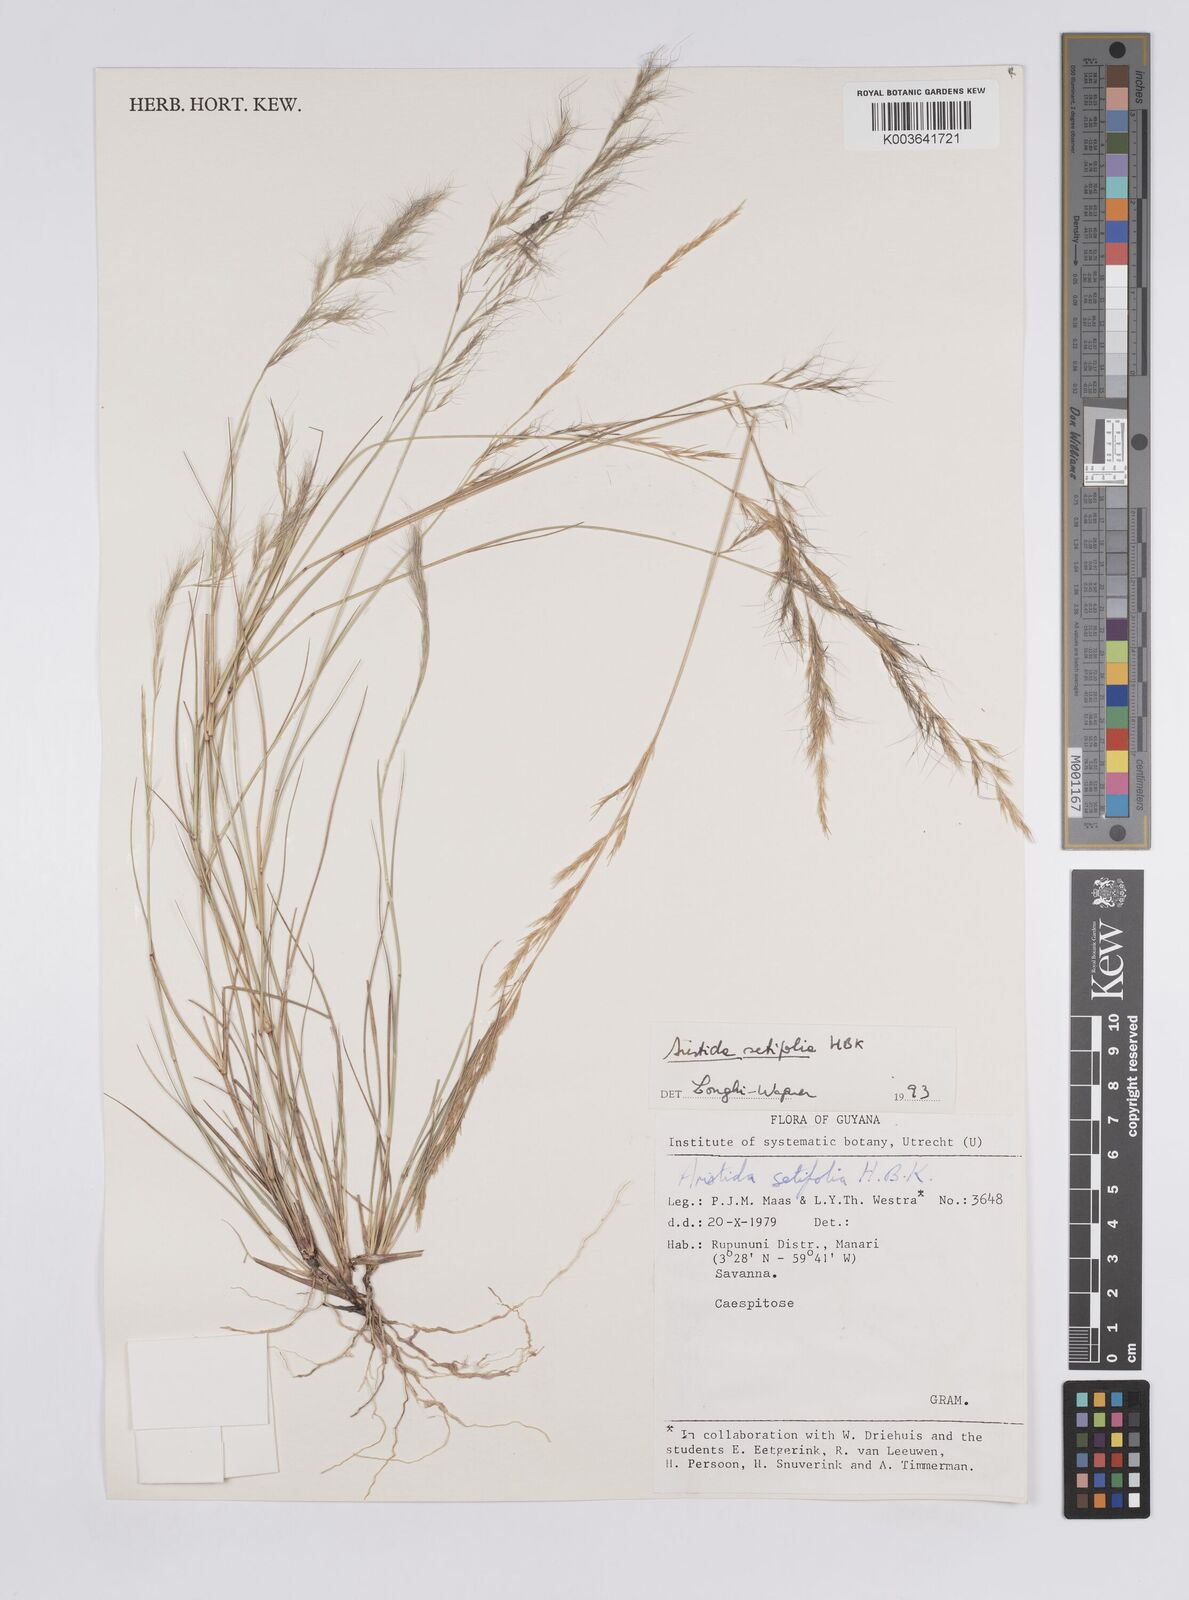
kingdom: Plantae
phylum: Tracheophyta
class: Liliopsida
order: Poales
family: Poaceae
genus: Aristida
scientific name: Aristida setifolia
